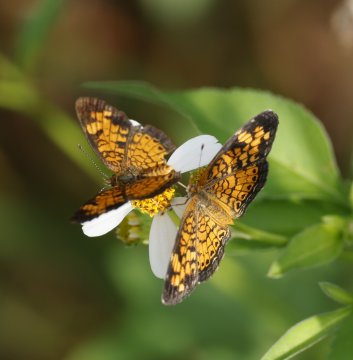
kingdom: Animalia
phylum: Arthropoda
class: Insecta
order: Lepidoptera
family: Nymphalidae
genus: Phyciodes
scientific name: Phyciodes tharos
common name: Pearl Crescent
